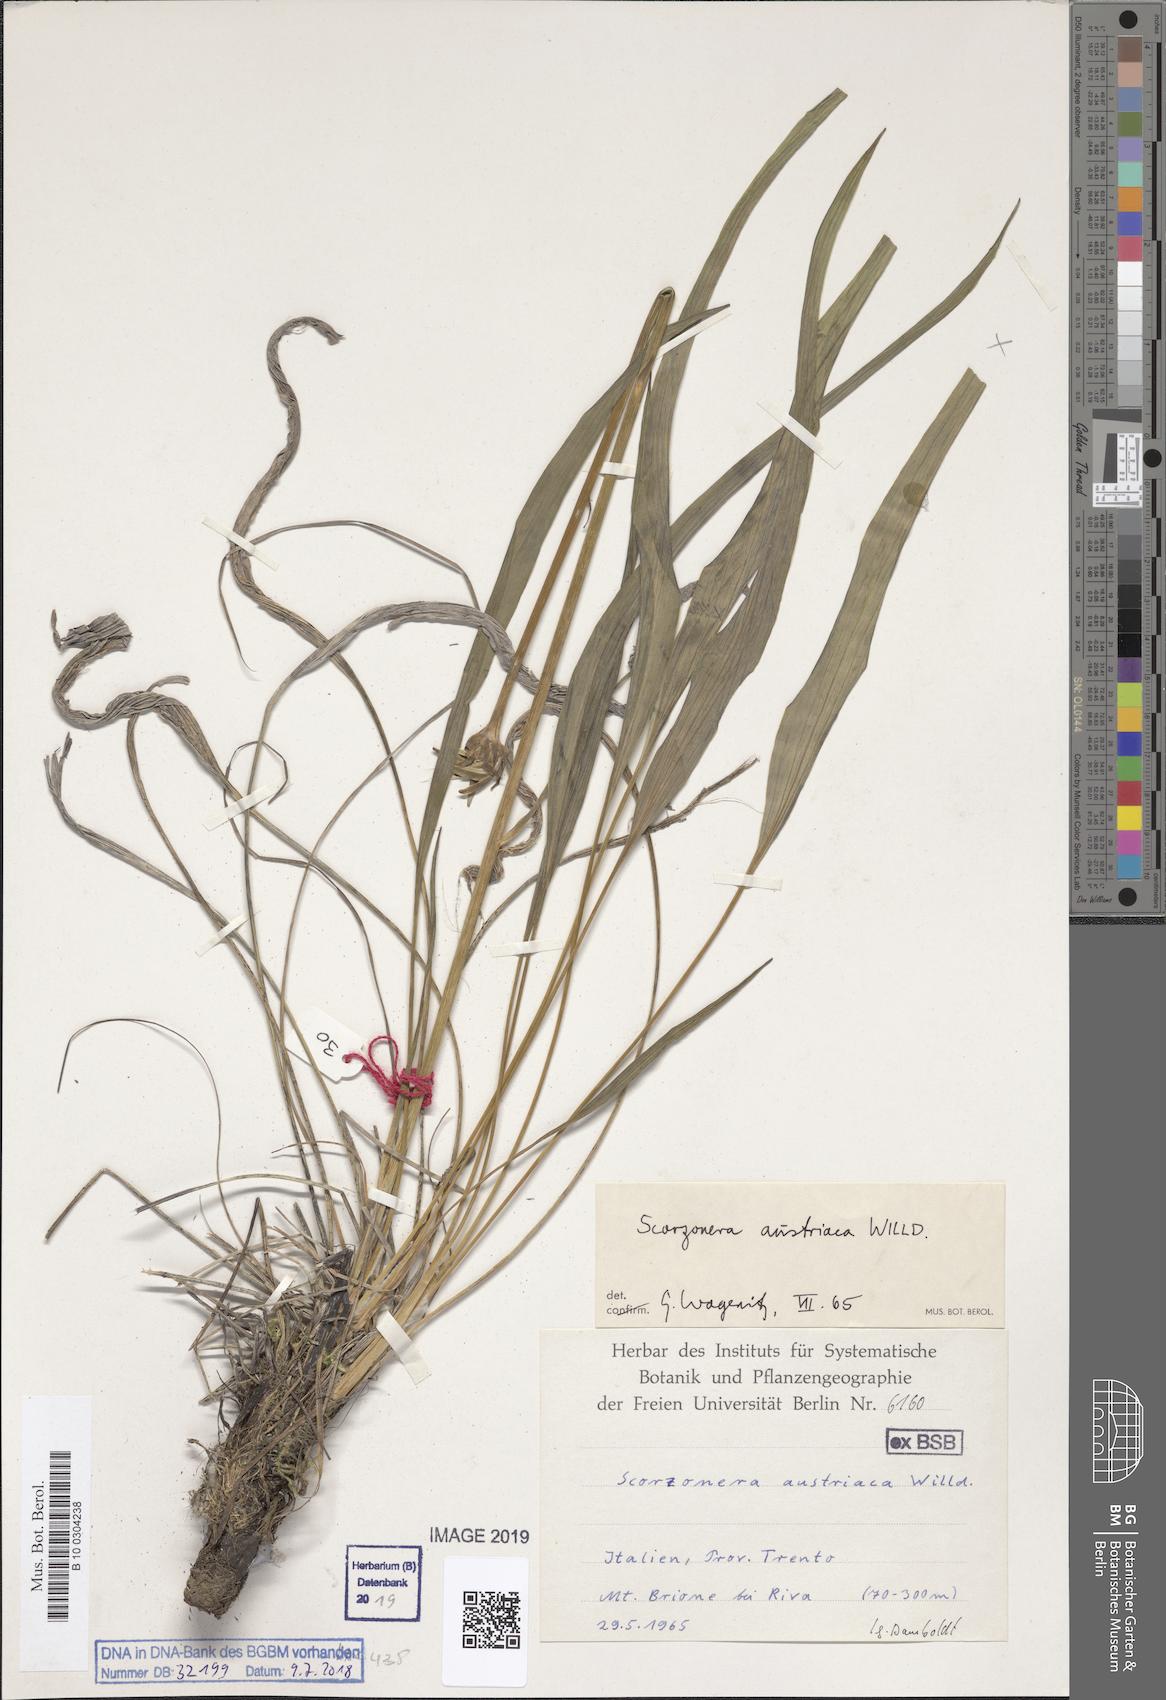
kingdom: Plantae
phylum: Tracheophyta
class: Magnoliopsida
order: Asterales
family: Asteraceae
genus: Takhtajaniantha
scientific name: Takhtajaniantha austriaca
